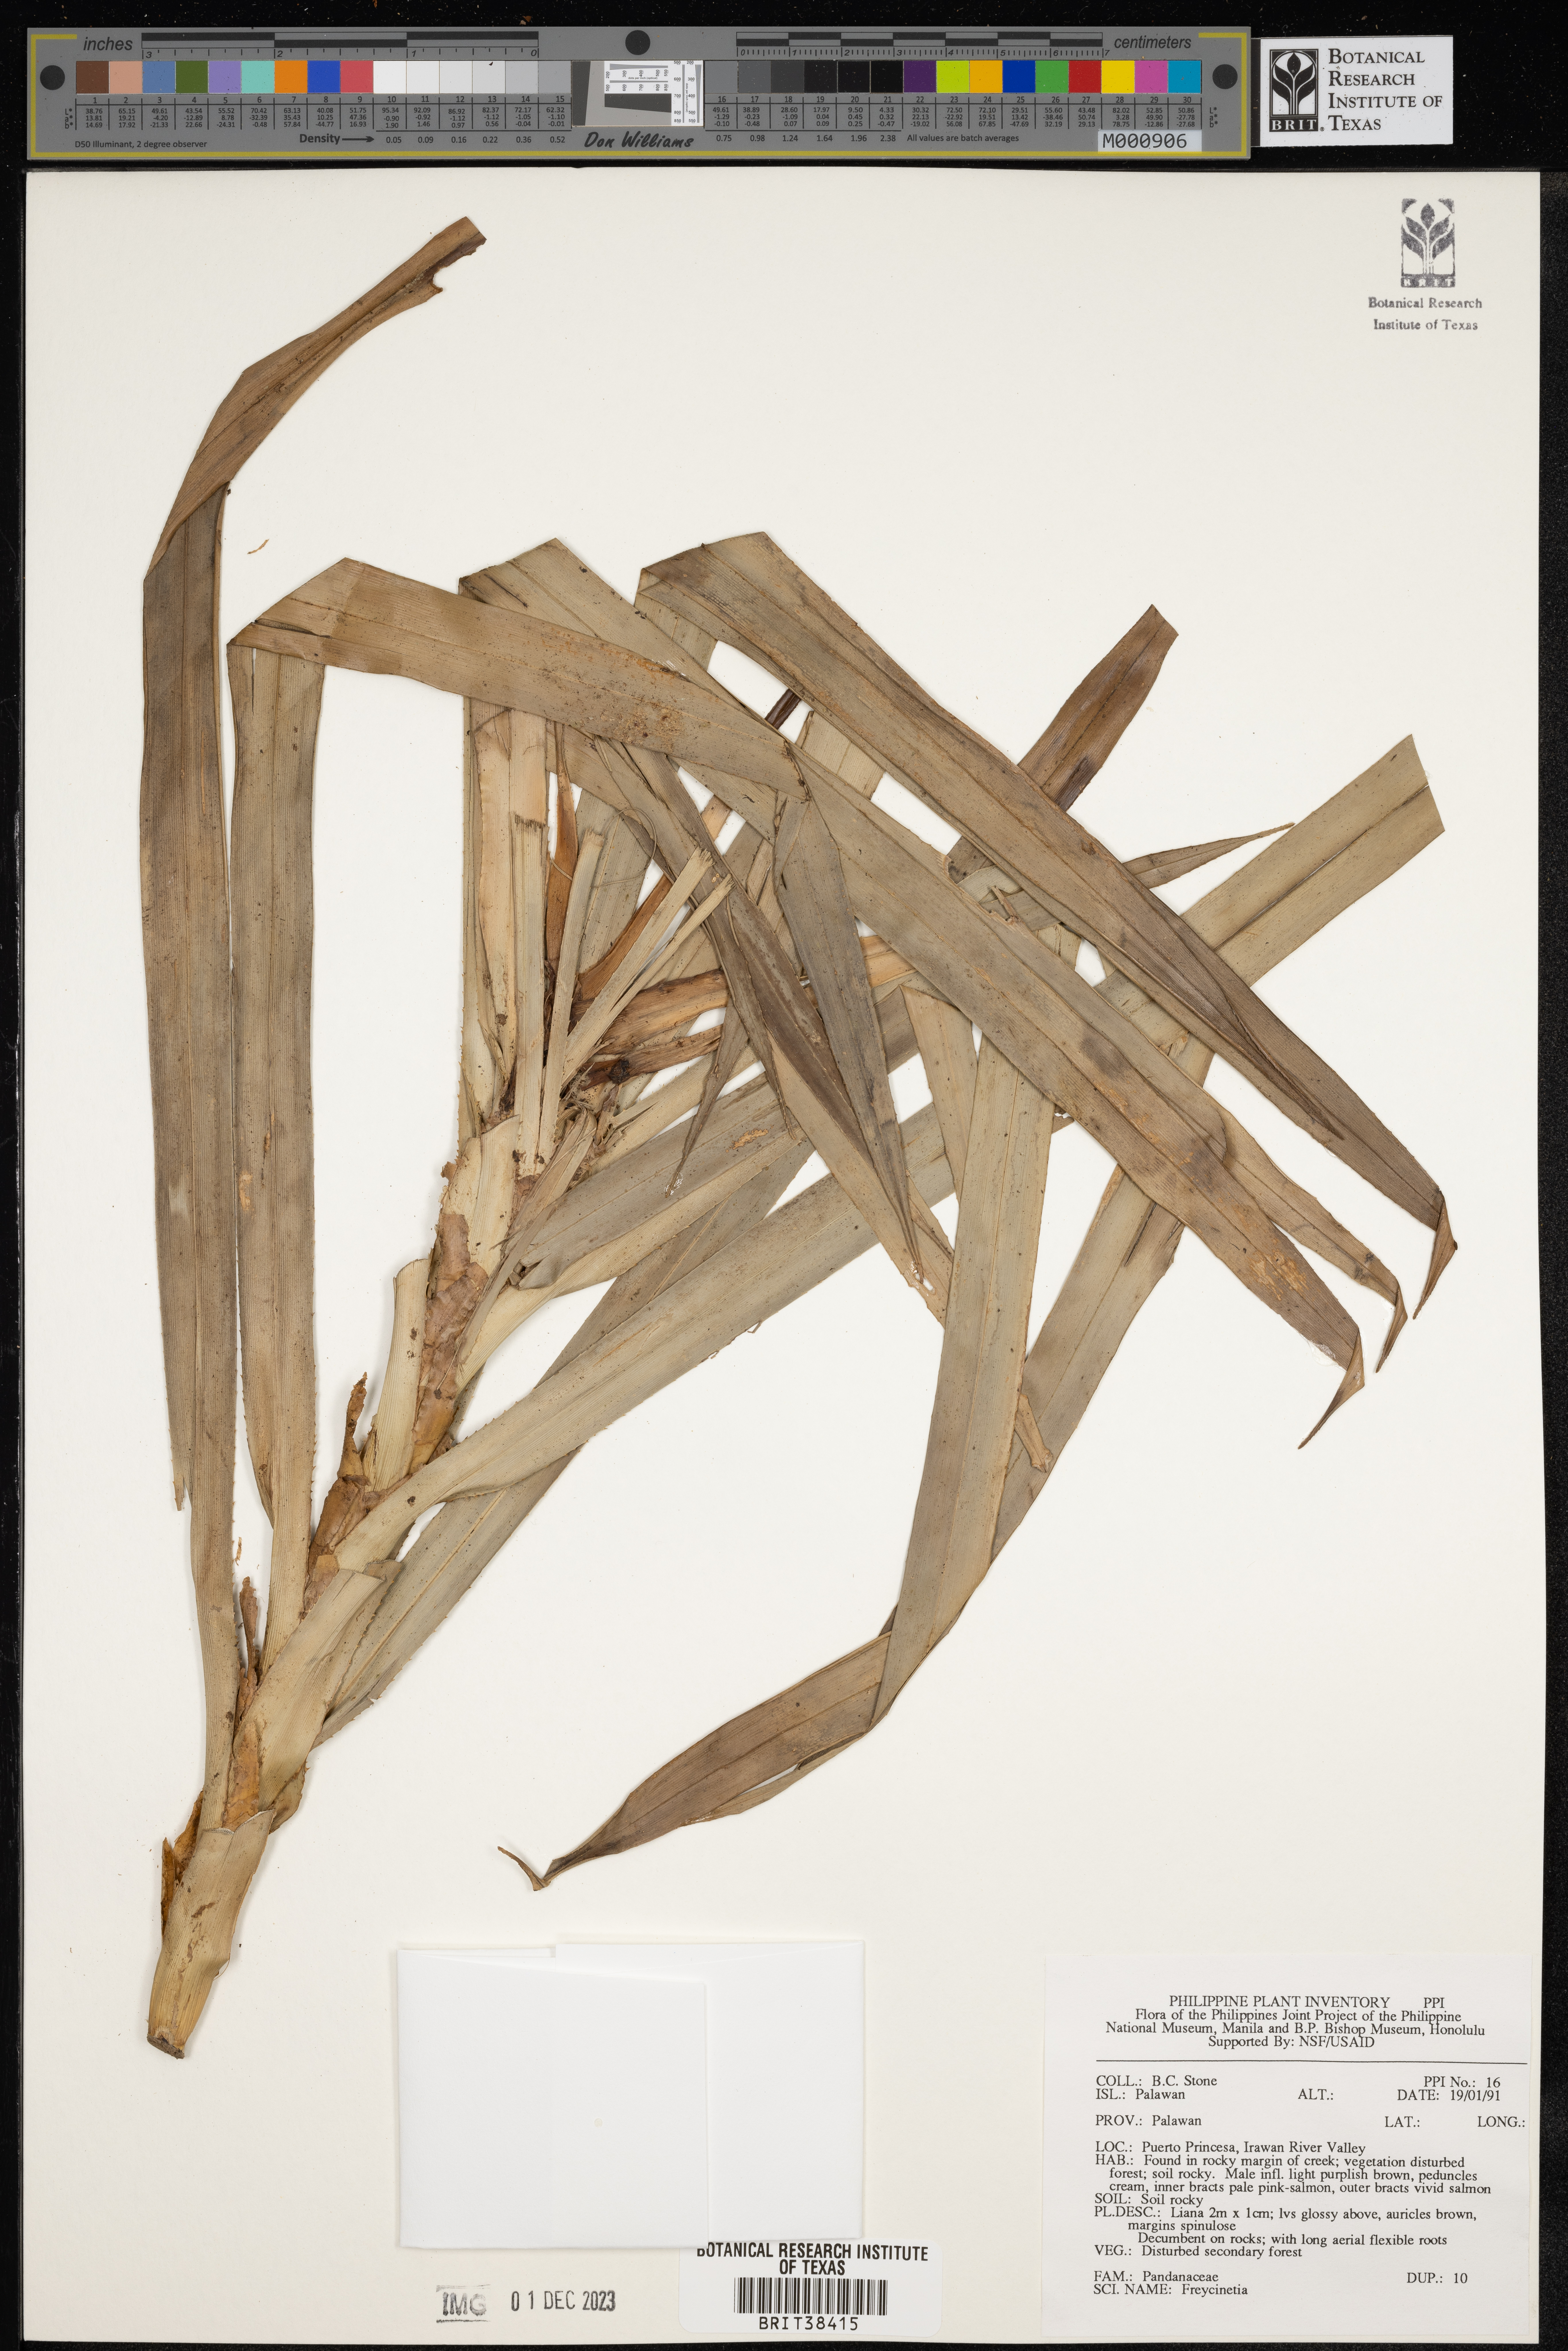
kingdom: Plantae
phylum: Tracheophyta
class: Liliopsida
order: Pandanales
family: Pandanaceae
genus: Freycinetia
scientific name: Freycinetia
